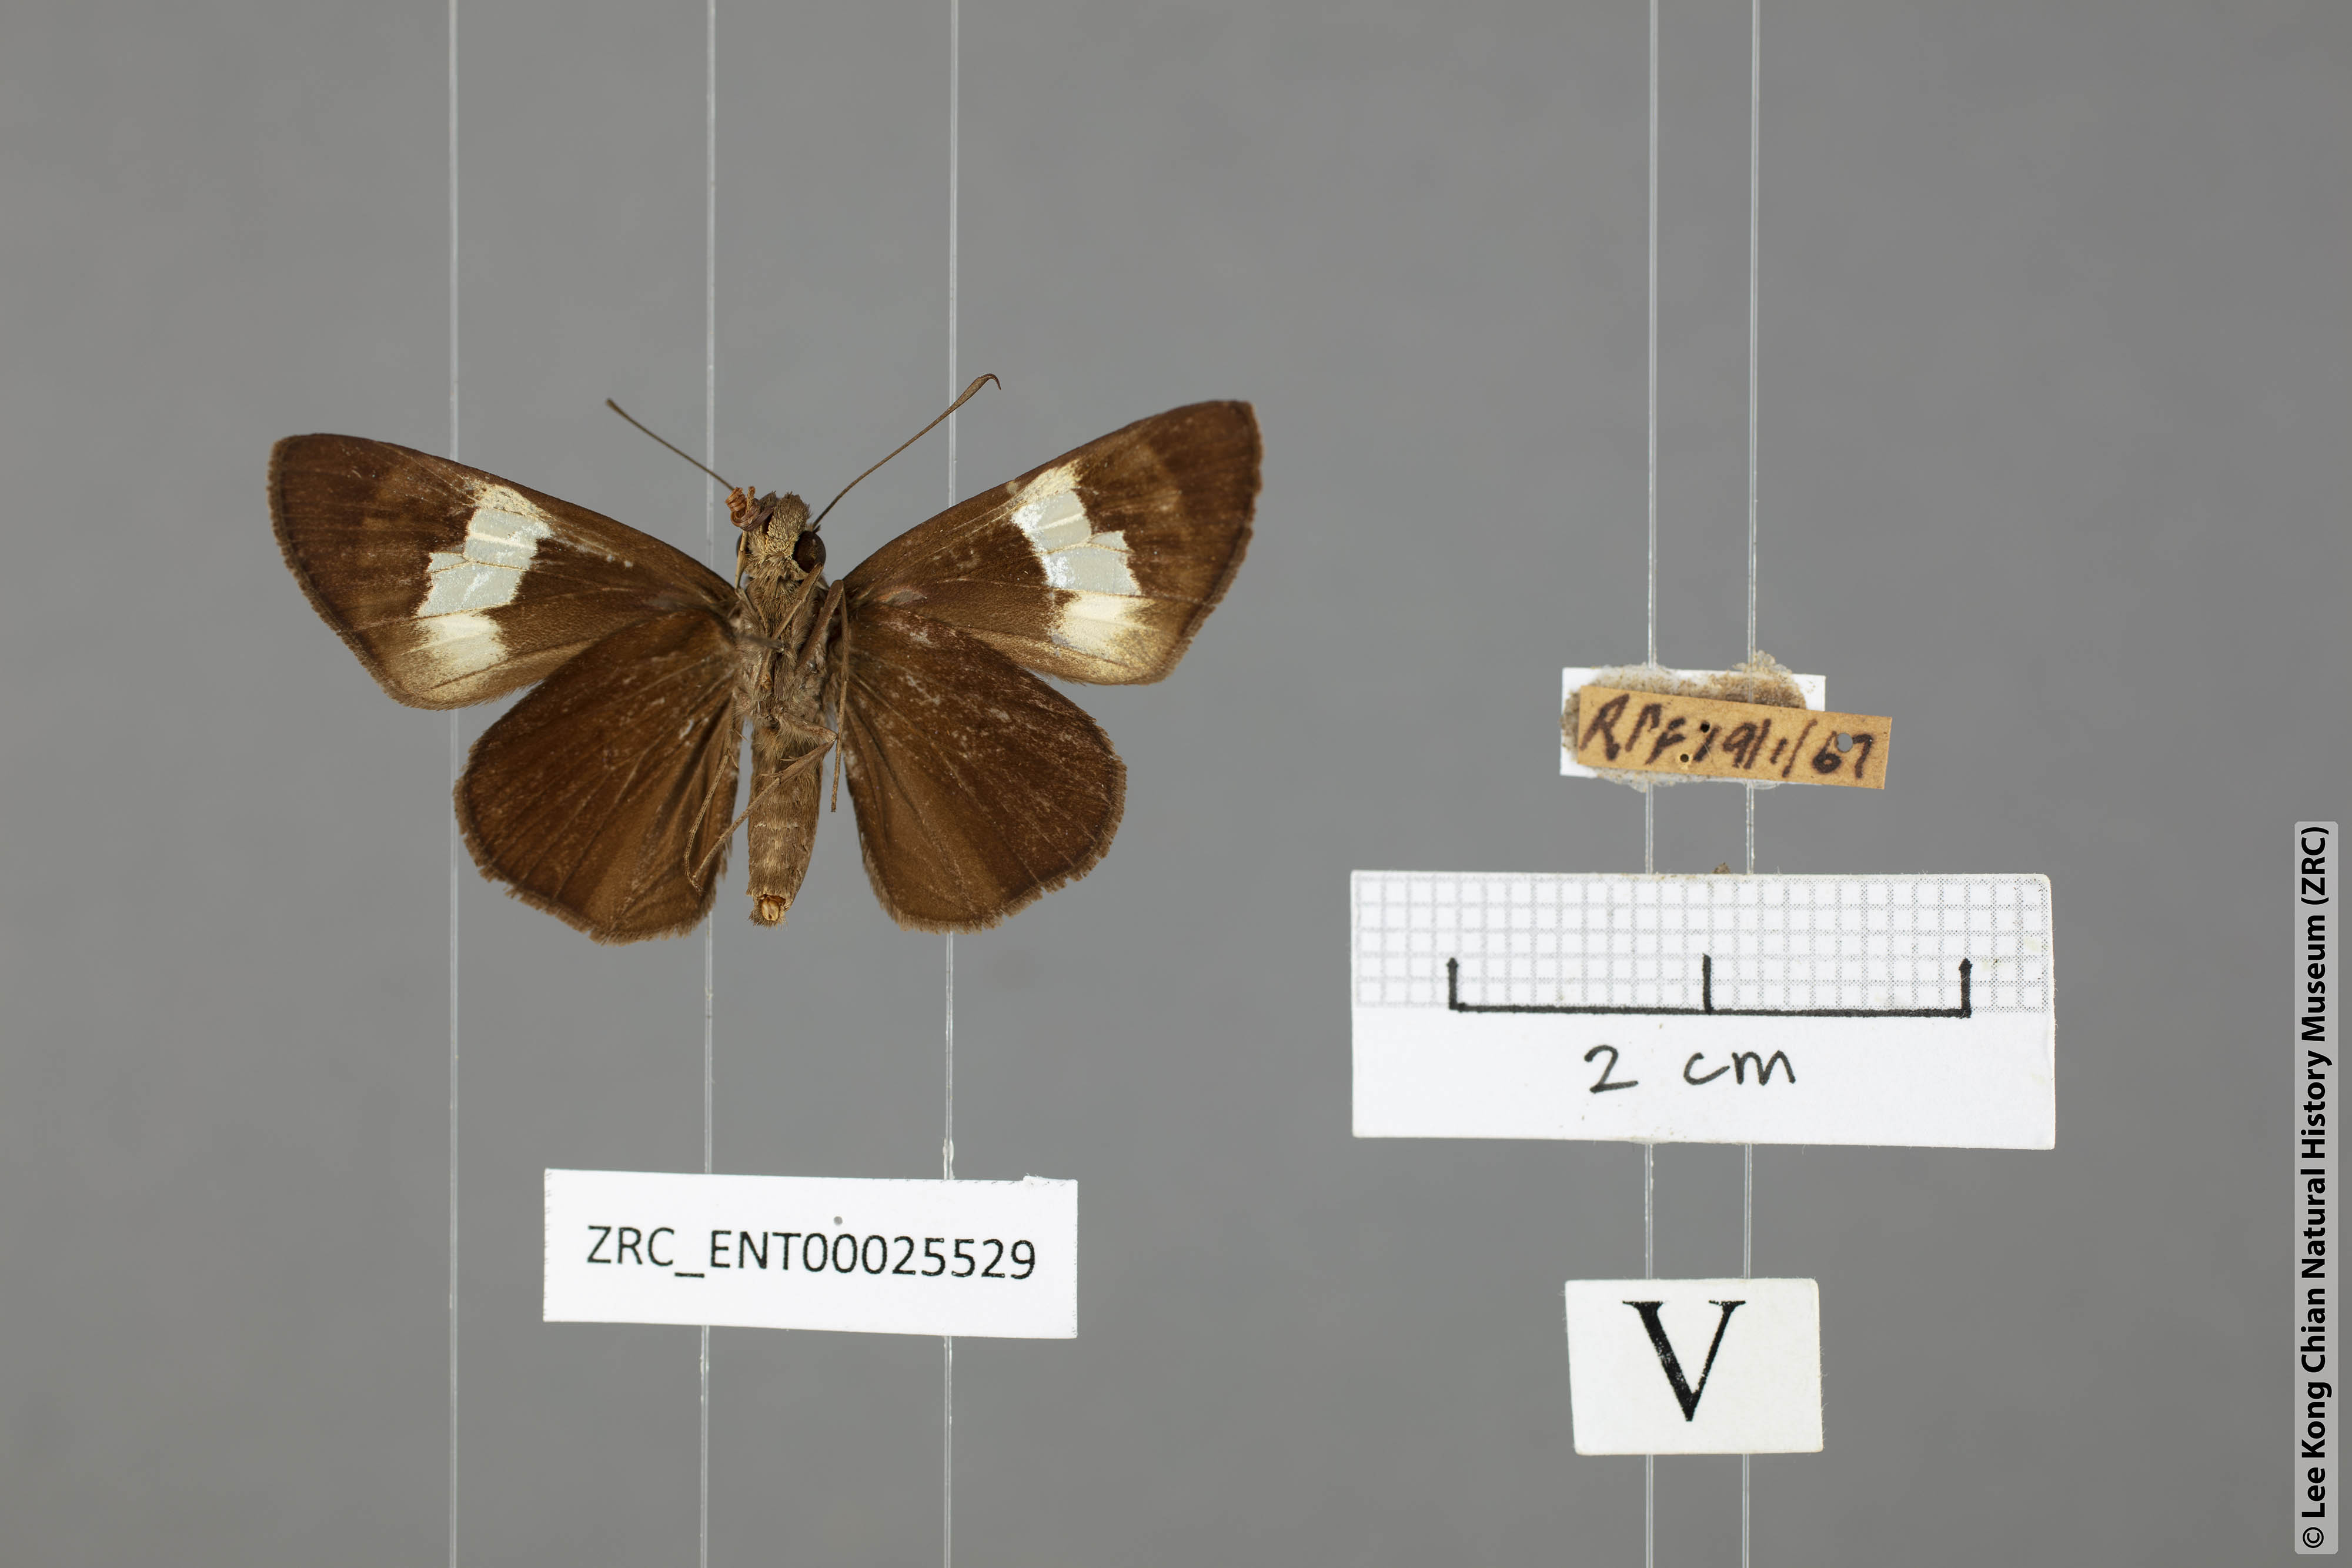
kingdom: Animalia
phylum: Arthropoda
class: Insecta
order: Lepidoptera
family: Hesperiidae
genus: Quedara
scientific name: Quedara monteithi
